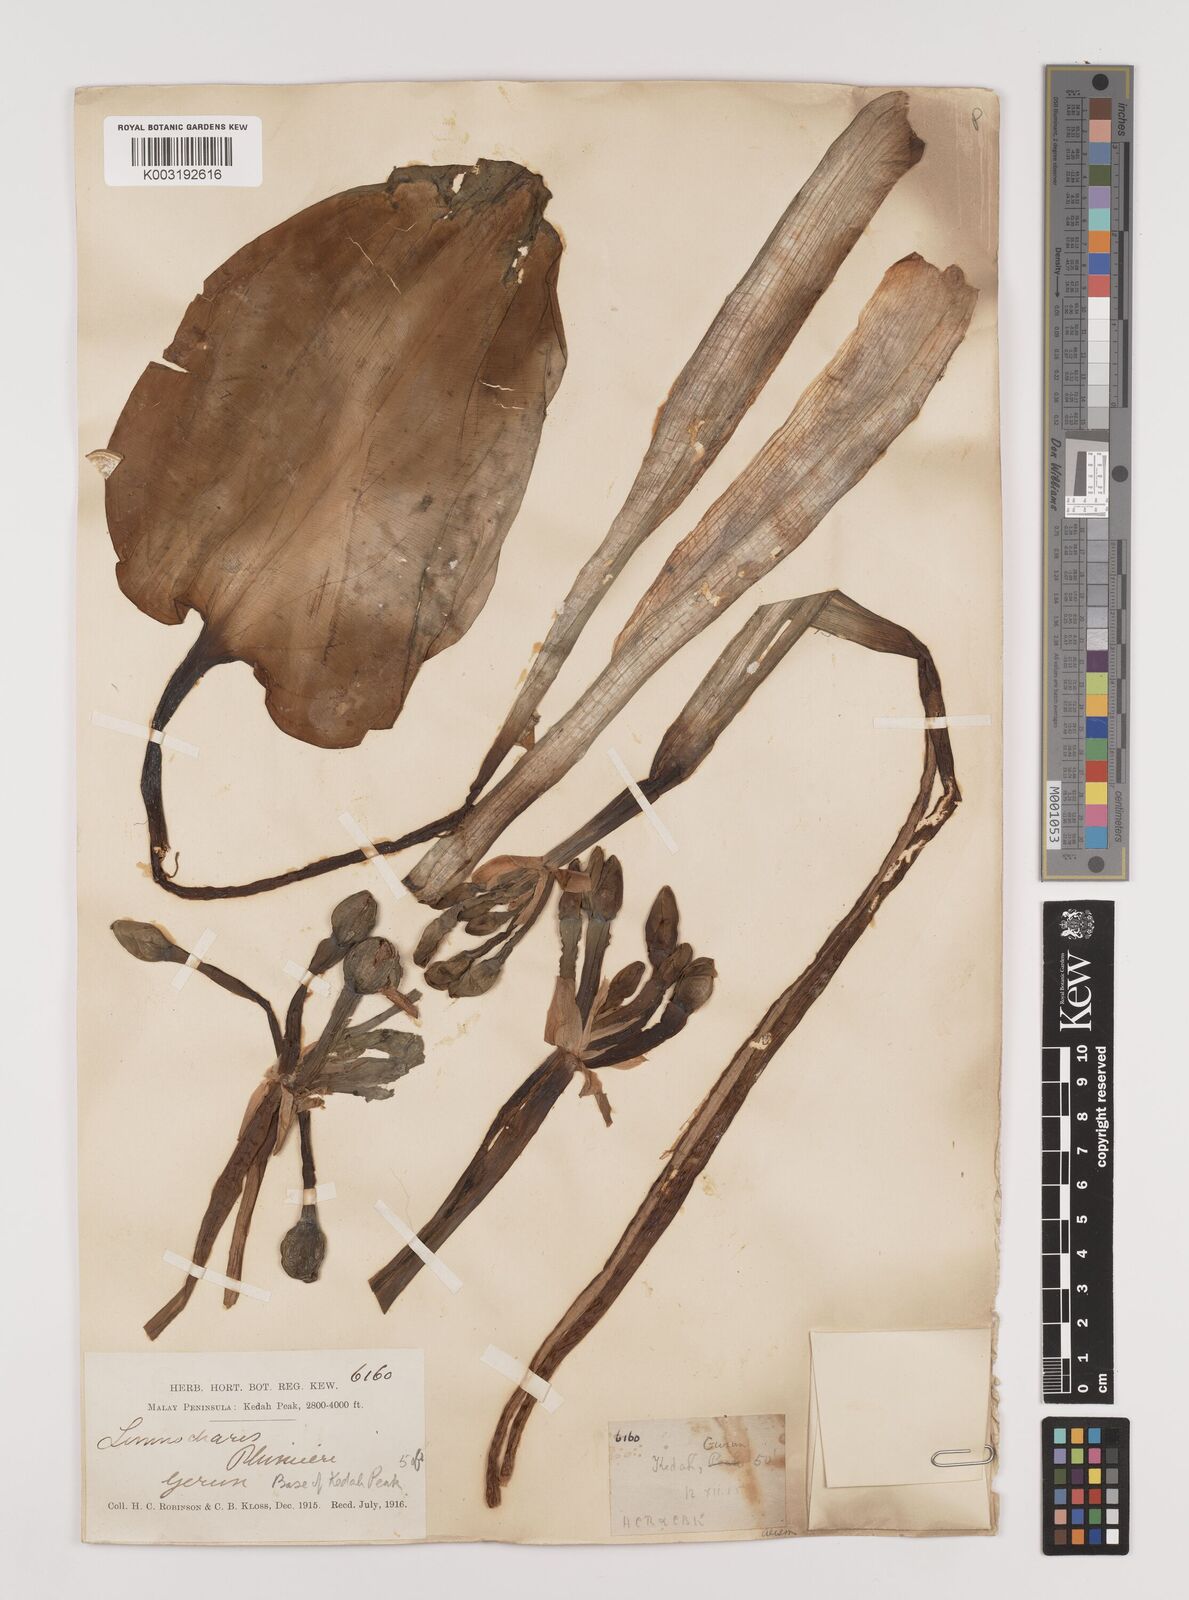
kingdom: Plantae
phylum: Tracheophyta
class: Liliopsida
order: Alismatales
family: Alismataceae
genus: Limnocharis
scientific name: Limnocharis flava
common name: Sawah-flower-rush
